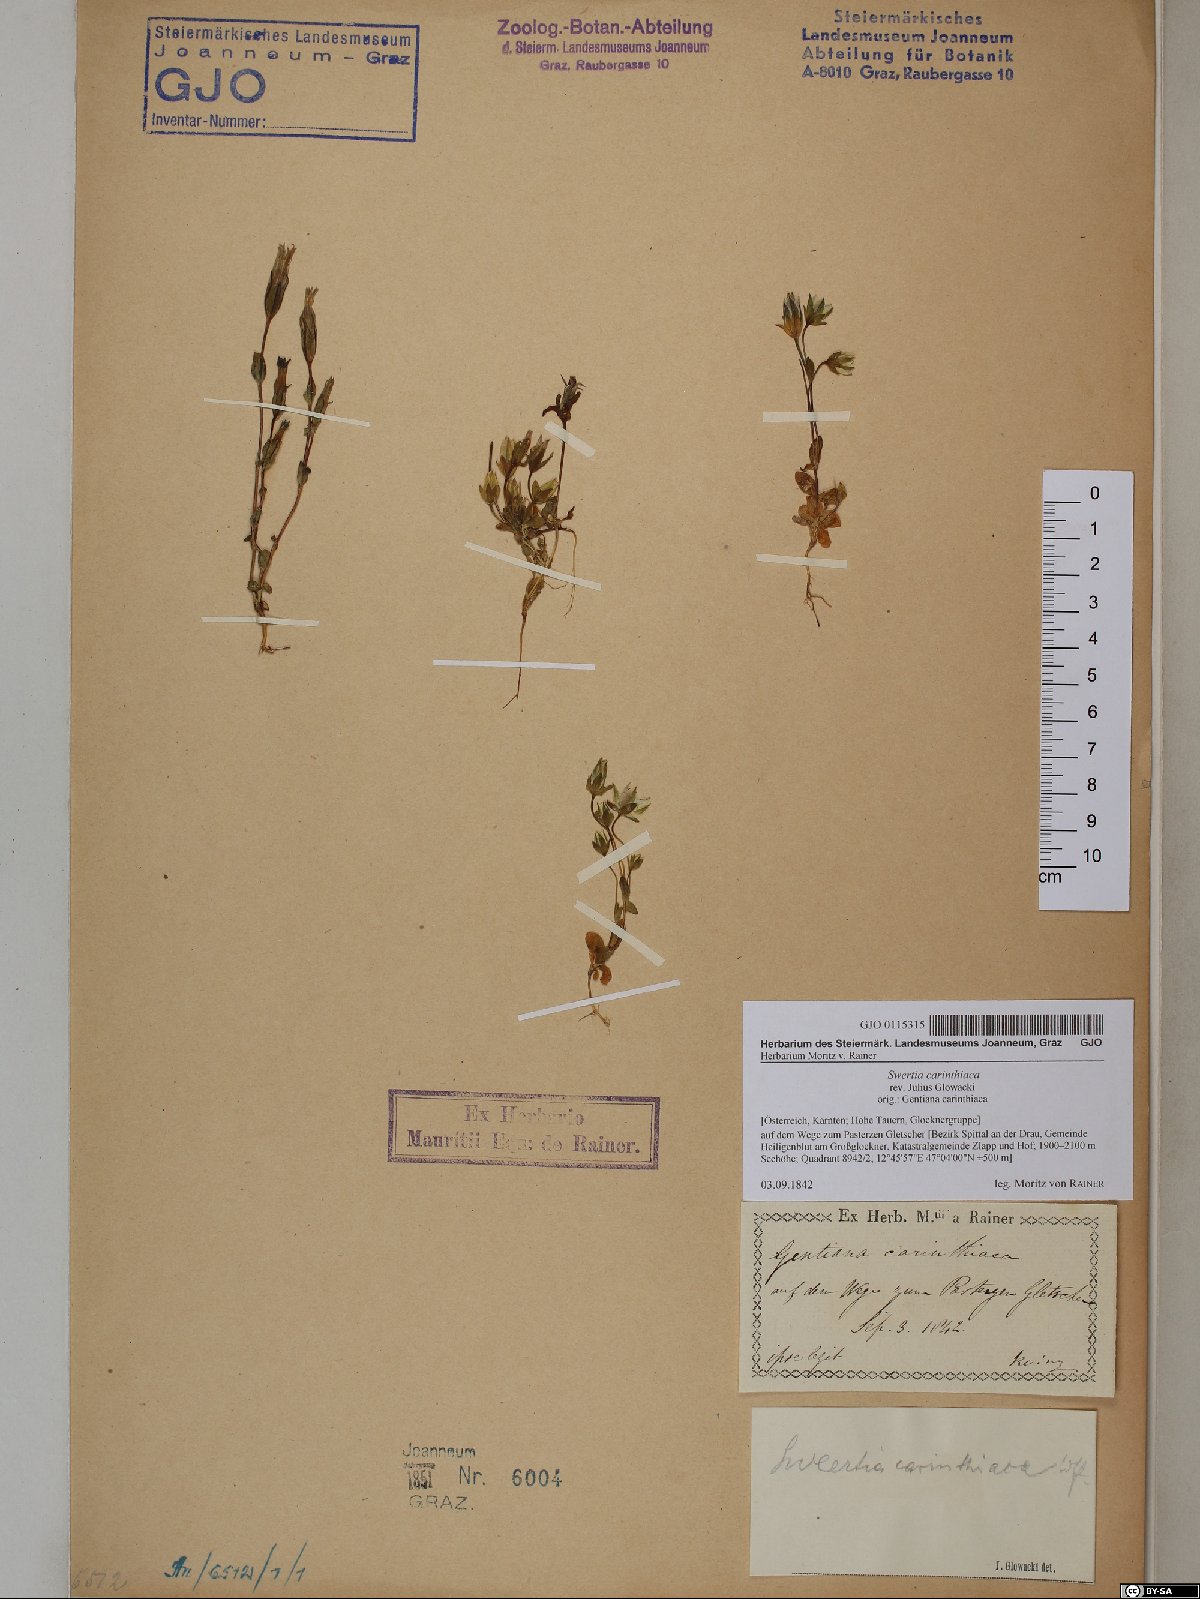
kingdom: Plantae
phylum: Tracheophyta
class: Magnoliopsida
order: Gentianales
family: Gentianaceae
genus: Lomatogonium
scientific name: Lomatogonium carinthiacum
